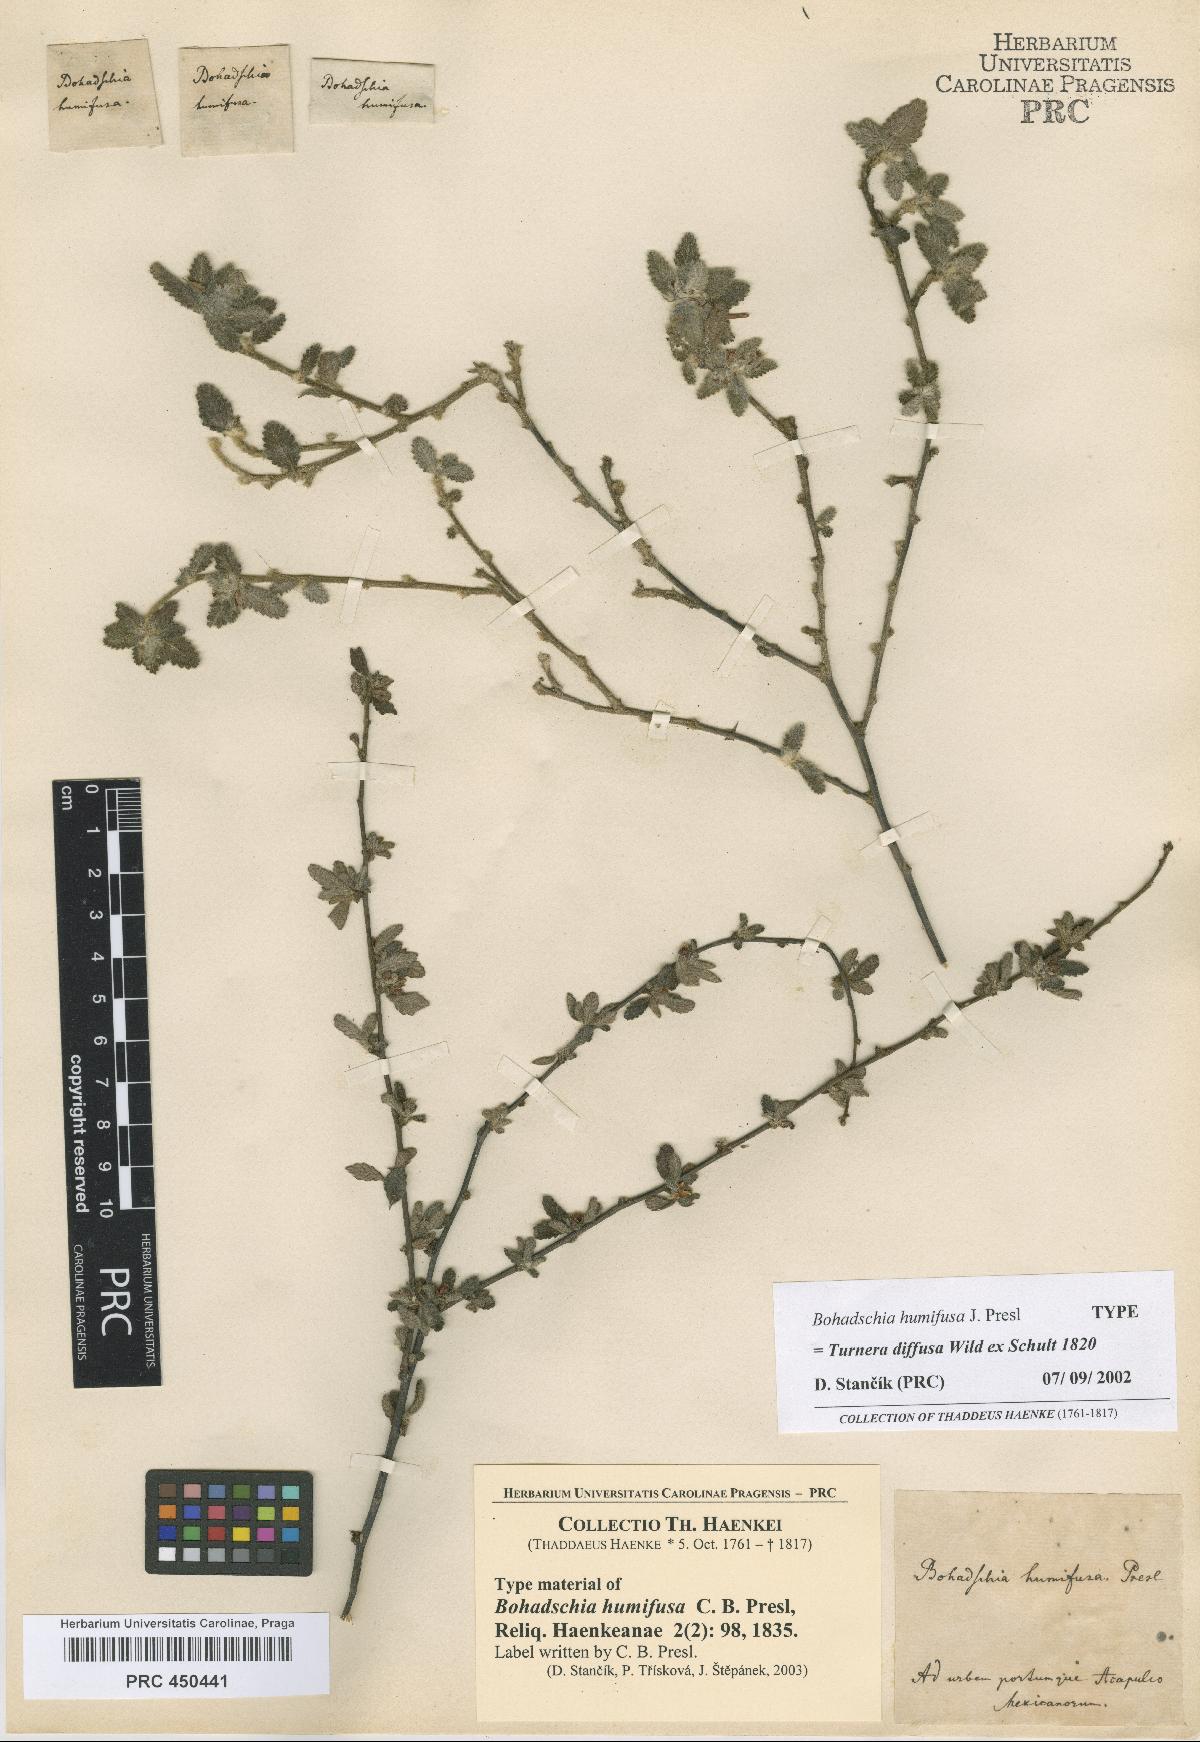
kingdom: Plantae
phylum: Tracheophyta
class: Magnoliopsida
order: Malpighiales
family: Turneraceae
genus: Turnera
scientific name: Turnera diffusa
